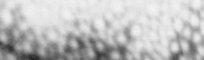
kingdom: Animalia
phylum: Chordata
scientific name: Chordata
